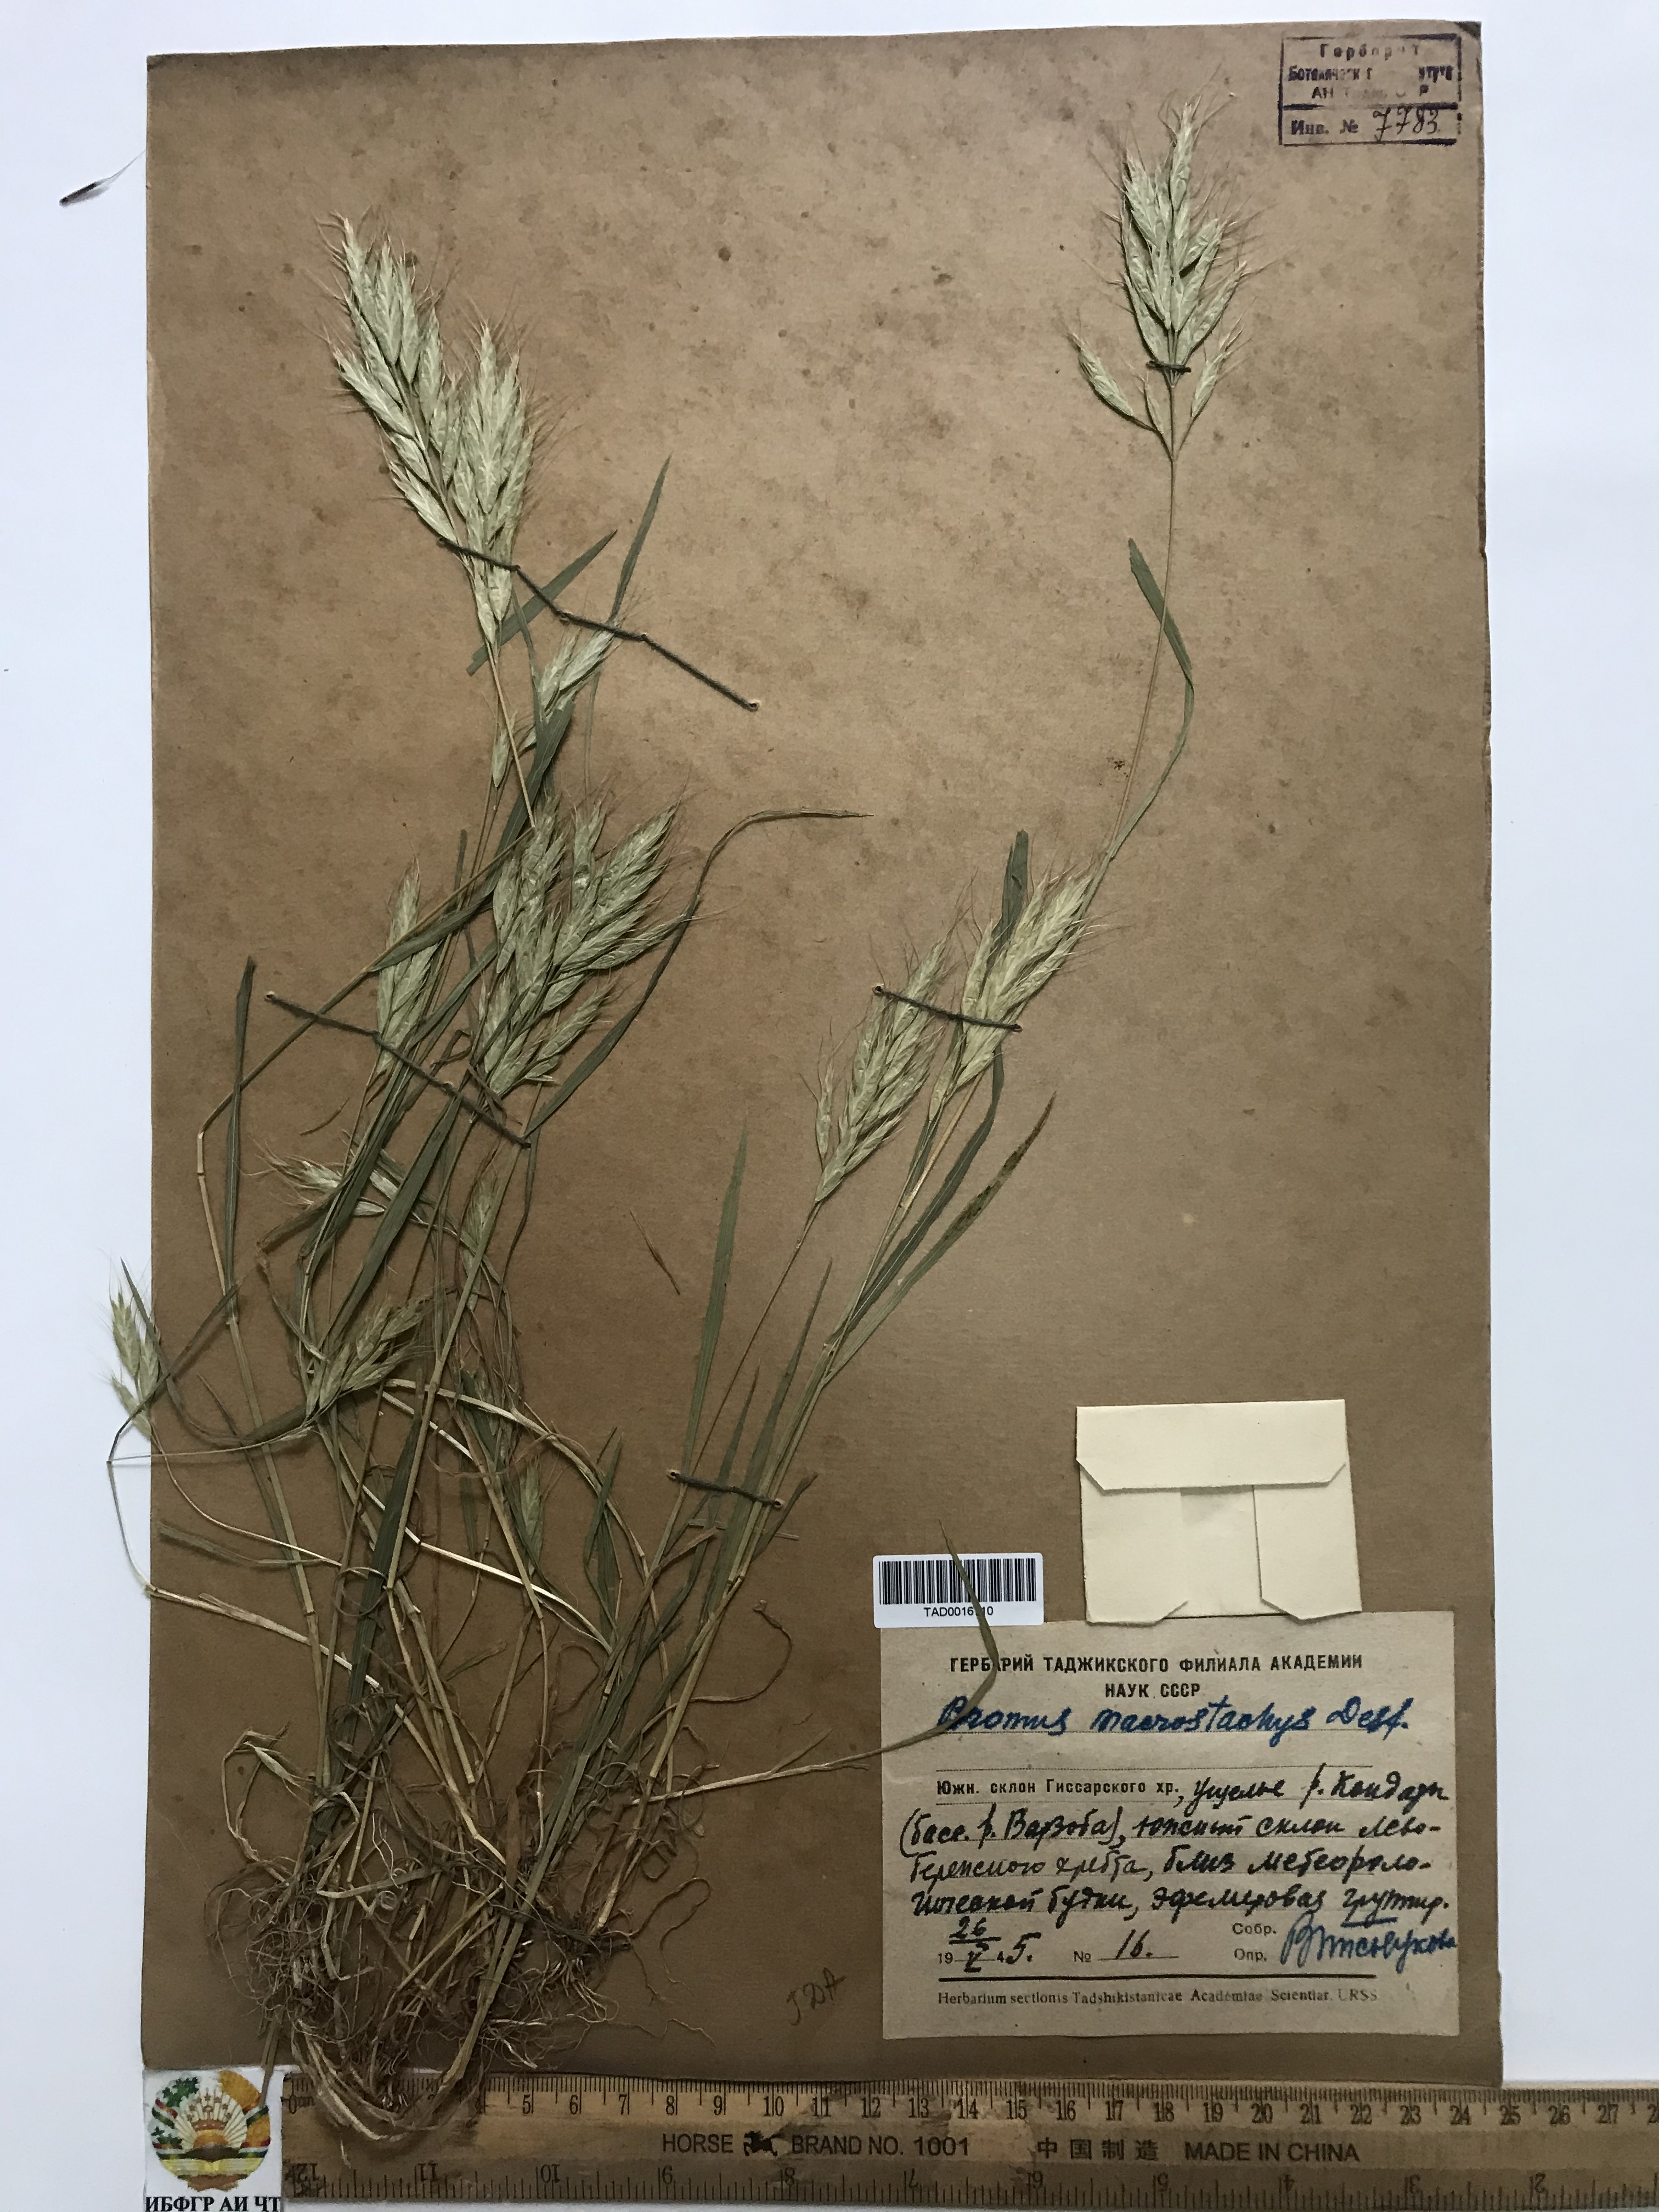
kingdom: Plantae
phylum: Tracheophyta
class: Liliopsida
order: Poales
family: Poaceae
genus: Bromus
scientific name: Bromus lanceolatus
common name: Mediterranean brome
